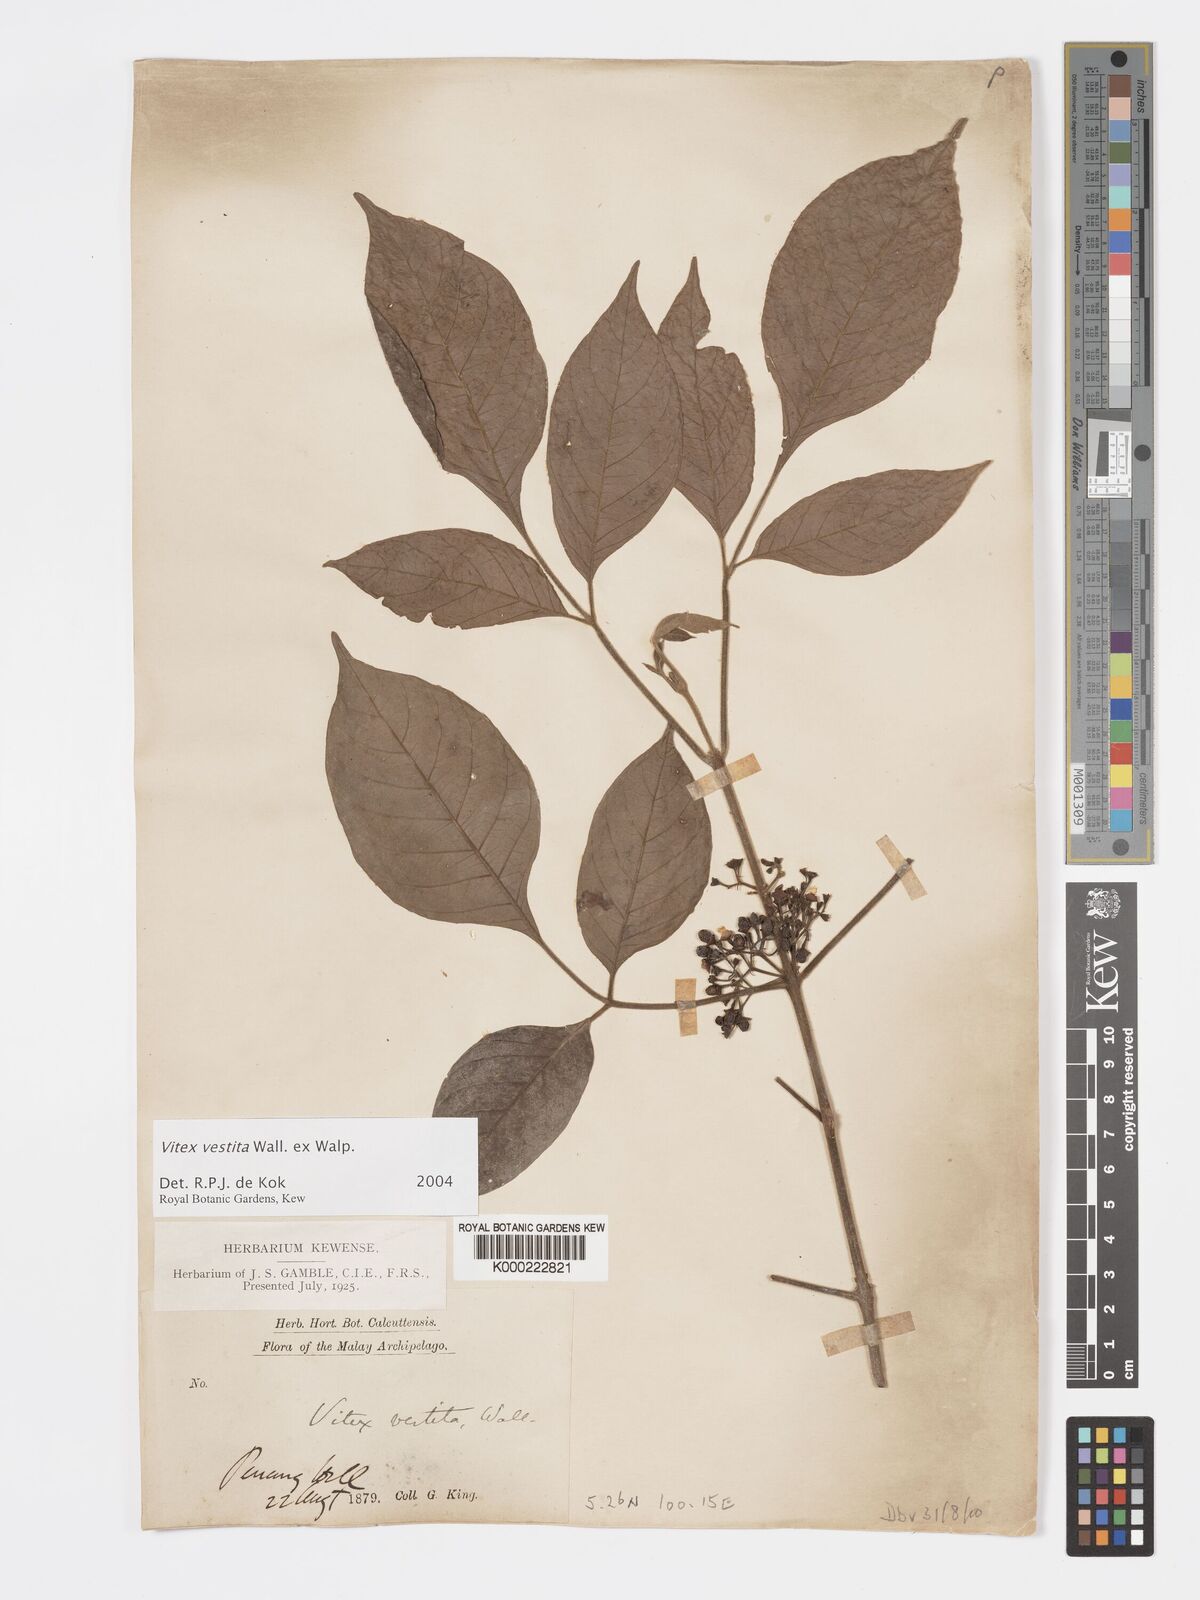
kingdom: Plantae
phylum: Tracheophyta
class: Magnoliopsida
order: Lamiales
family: Lamiaceae
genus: Vitex
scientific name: Vitex vestita
